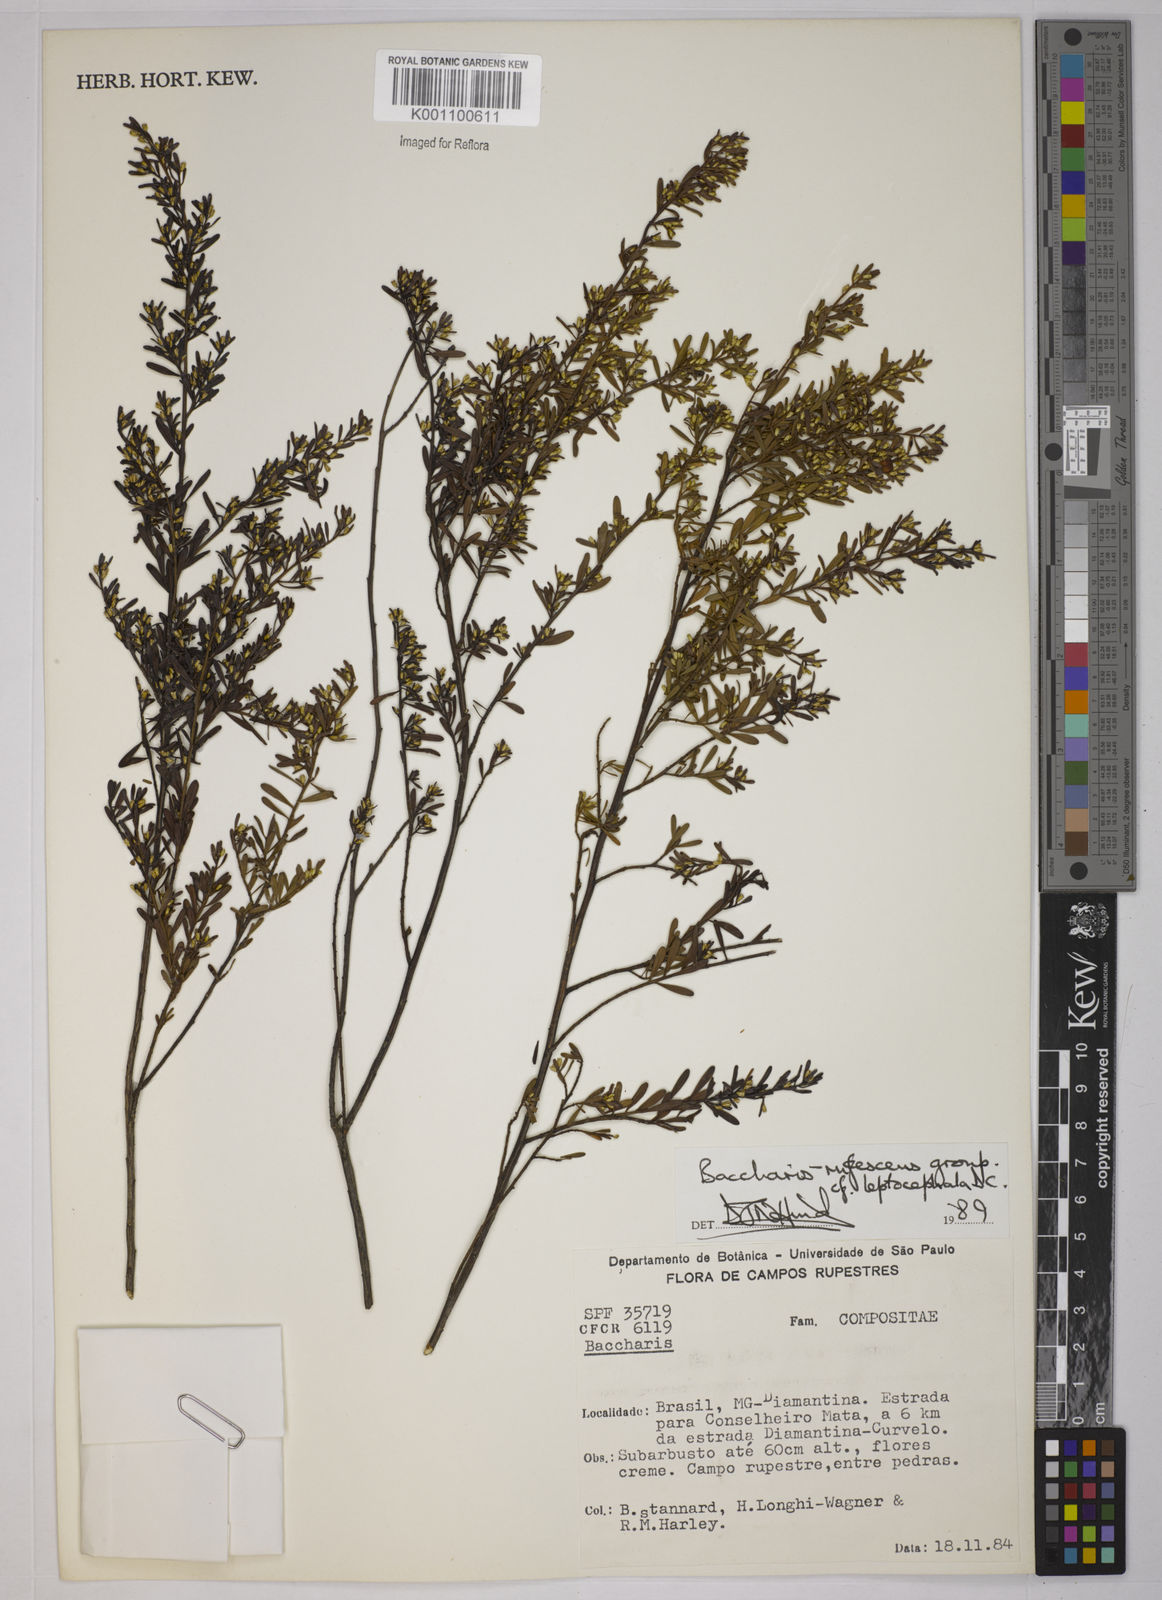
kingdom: Plantae
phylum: Tracheophyta
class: Magnoliopsida
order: Asterales
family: Asteraceae
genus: Baccharis
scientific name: Baccharis rufescens
